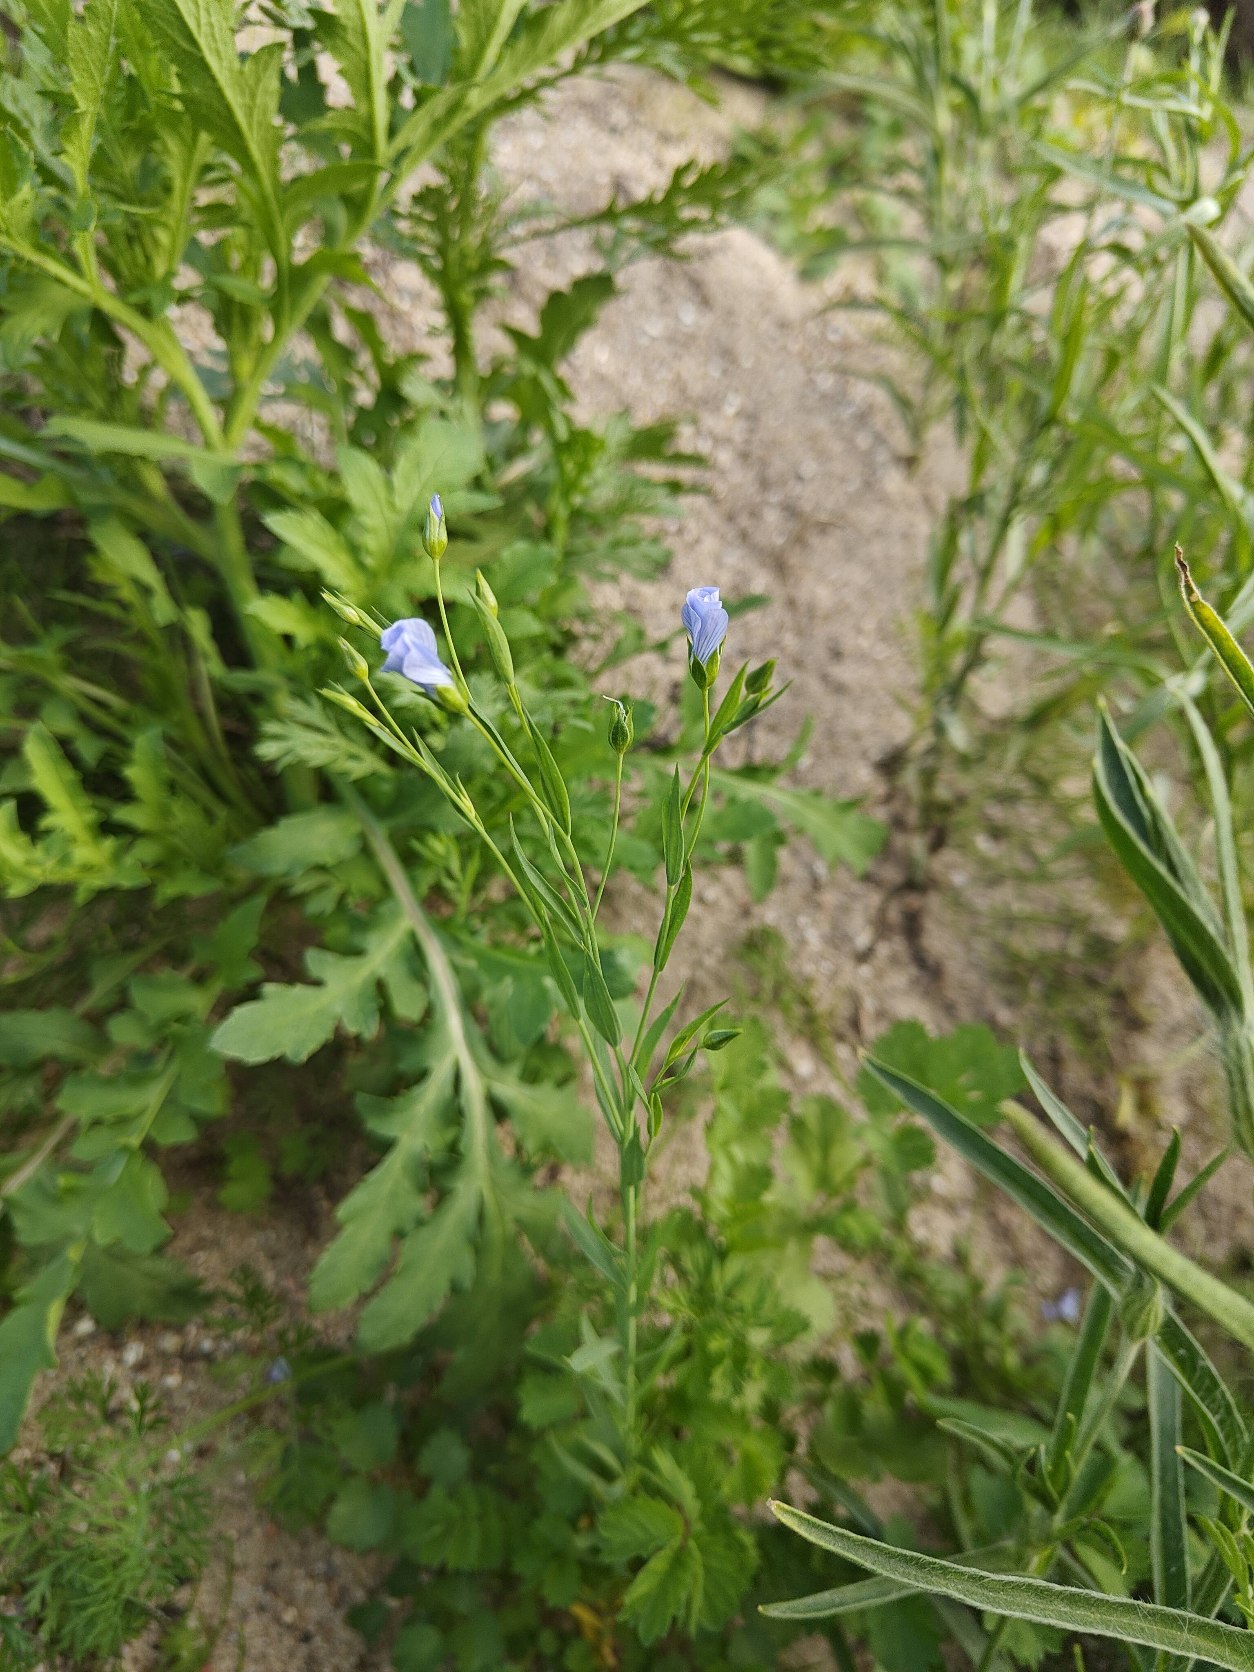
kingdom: Plantae
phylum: Tracheophyta
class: Magnoliopsida
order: Malpighiales
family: Linaceae
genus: Linum
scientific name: Linum usitatissimum
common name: Almindelig hør
